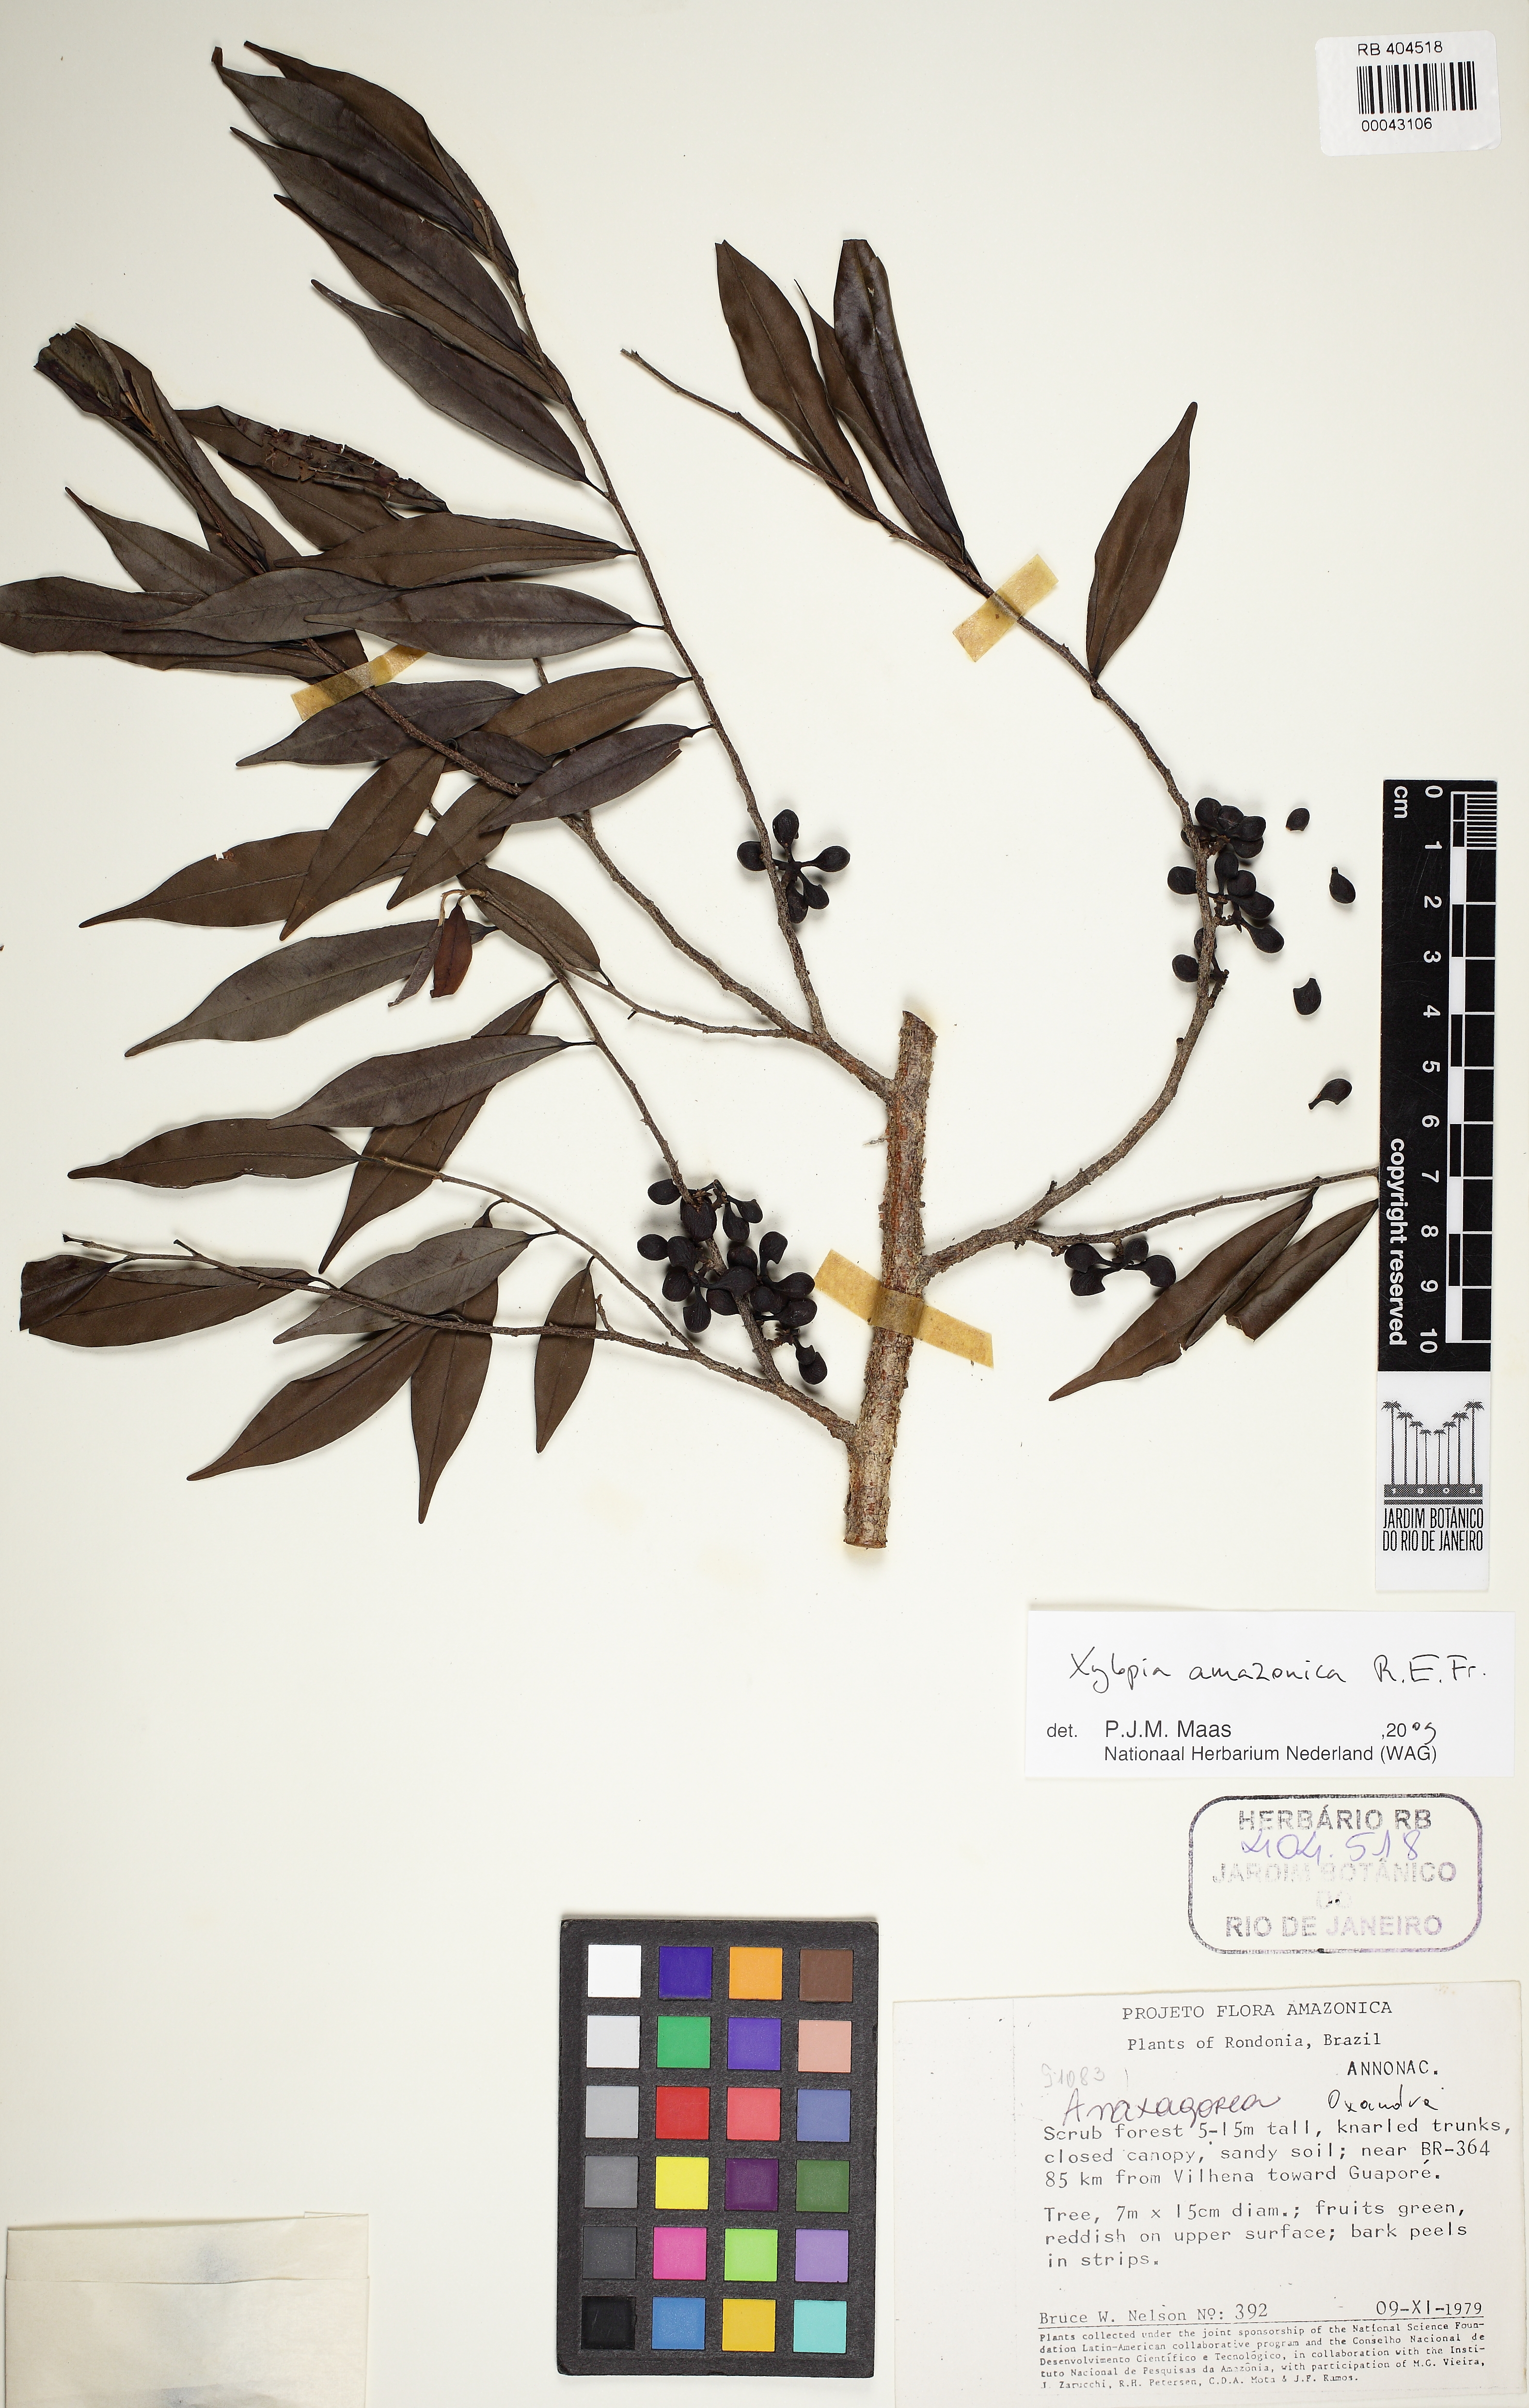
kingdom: Plantae
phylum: Tracheophyta
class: Magnoliopsida
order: Magnoliales
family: Annonaceae
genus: Xylopia
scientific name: Xylopia amazonica
